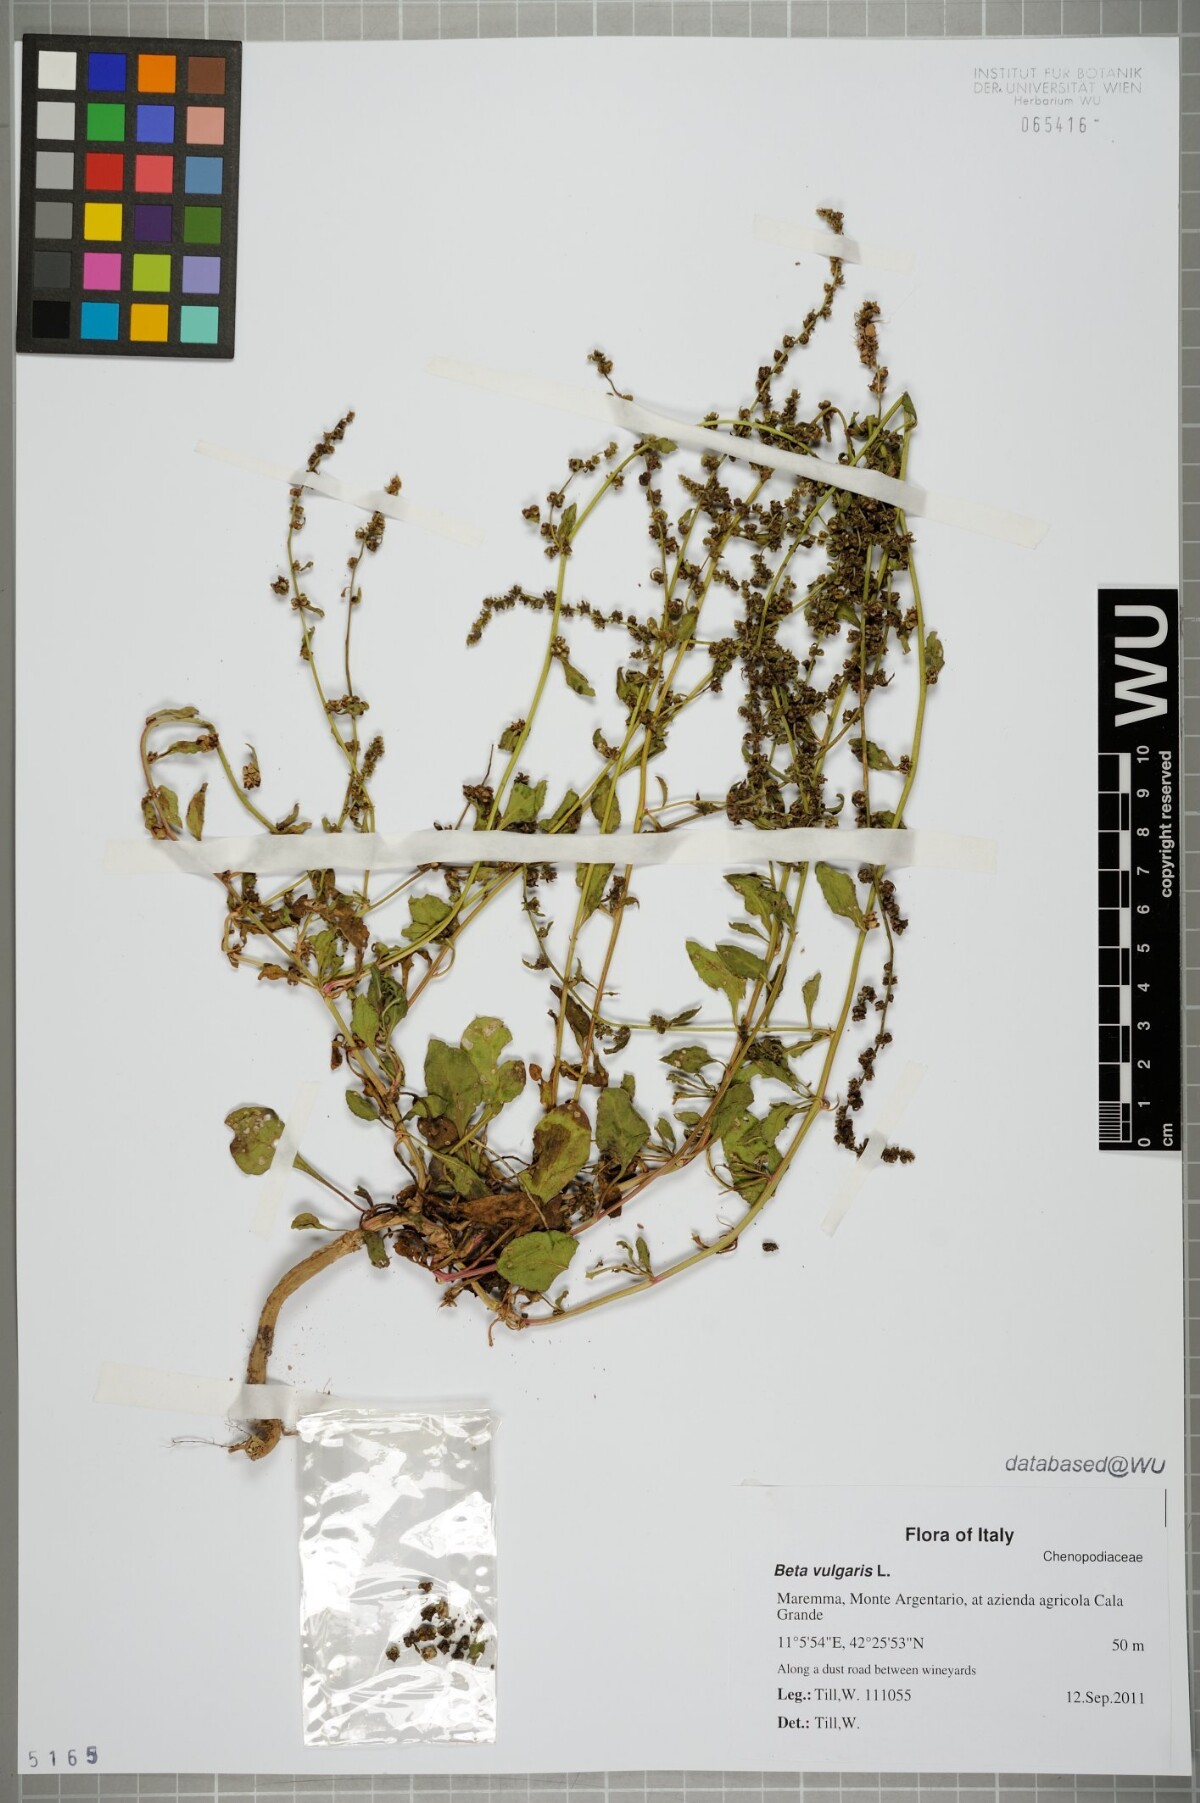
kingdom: Plantae
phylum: Tracheophyta
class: Magnoliopsida
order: Caryophyllales
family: Amaranthaceae
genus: Beta
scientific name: Beta vulgaris
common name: Beet
